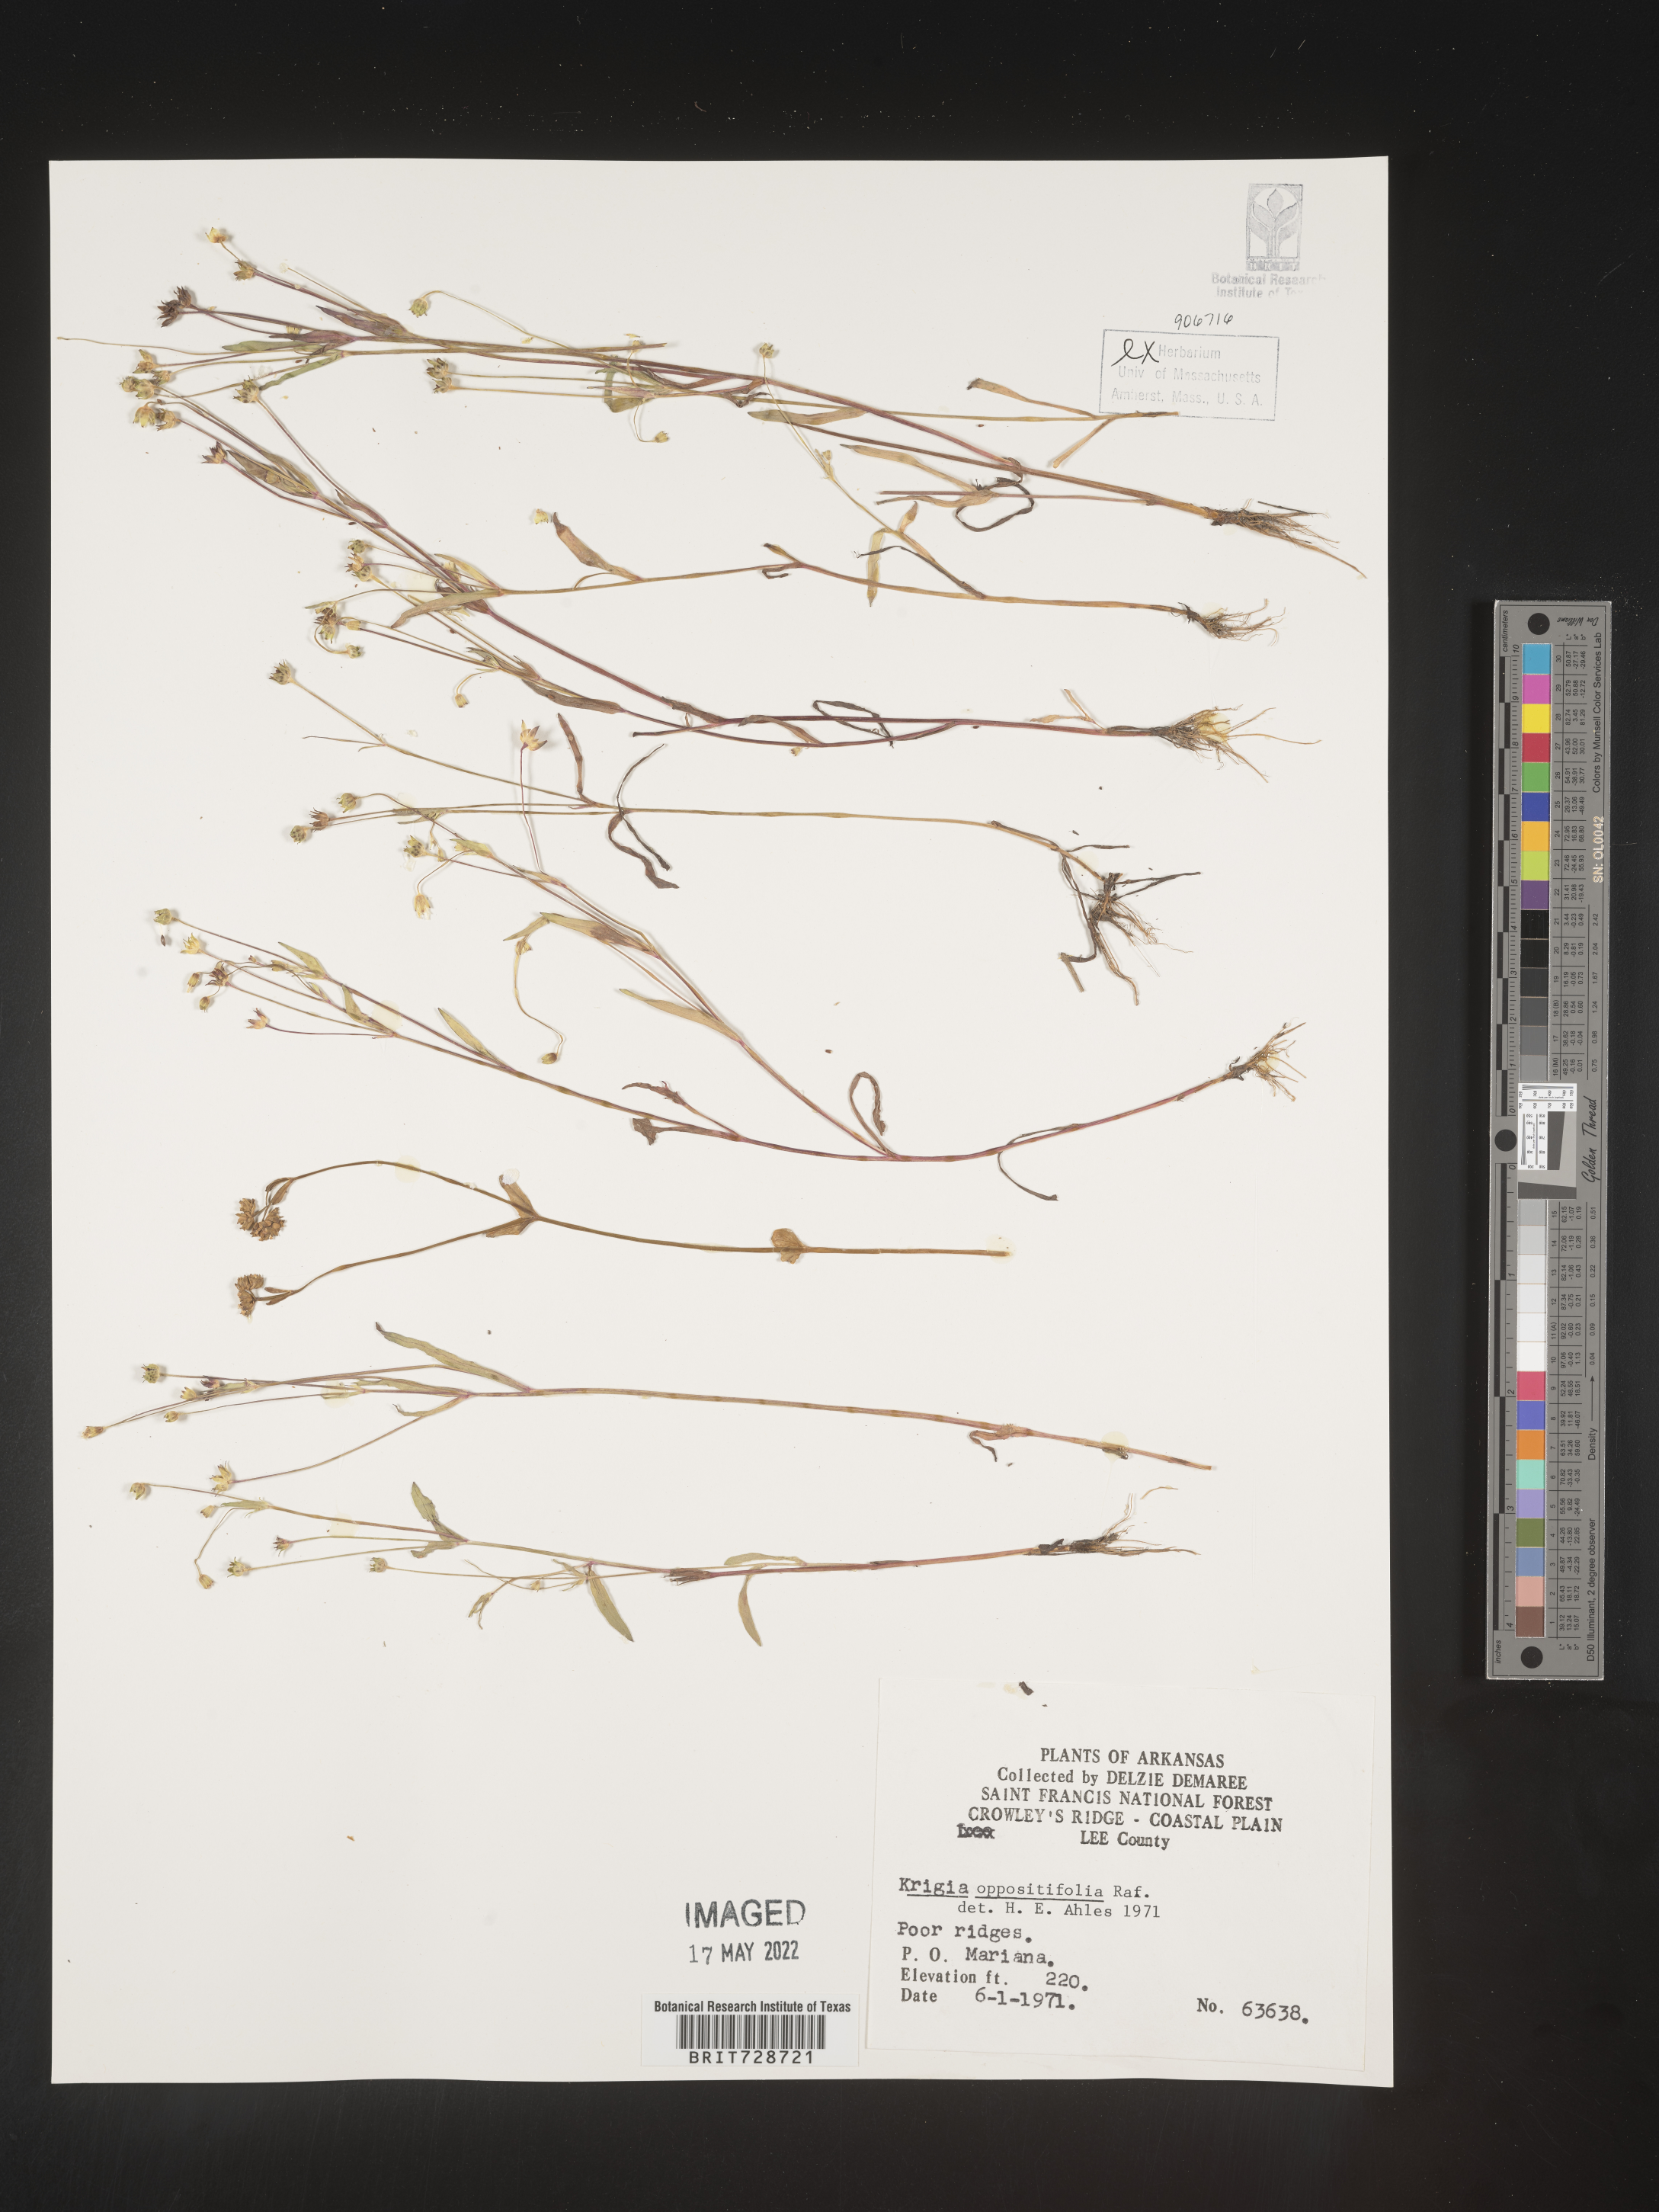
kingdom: Plantae
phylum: Tracheophyta
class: Magnoliopsida
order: Asterales
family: Asteraceae
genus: Krigia
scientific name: Krigia cespitosa
